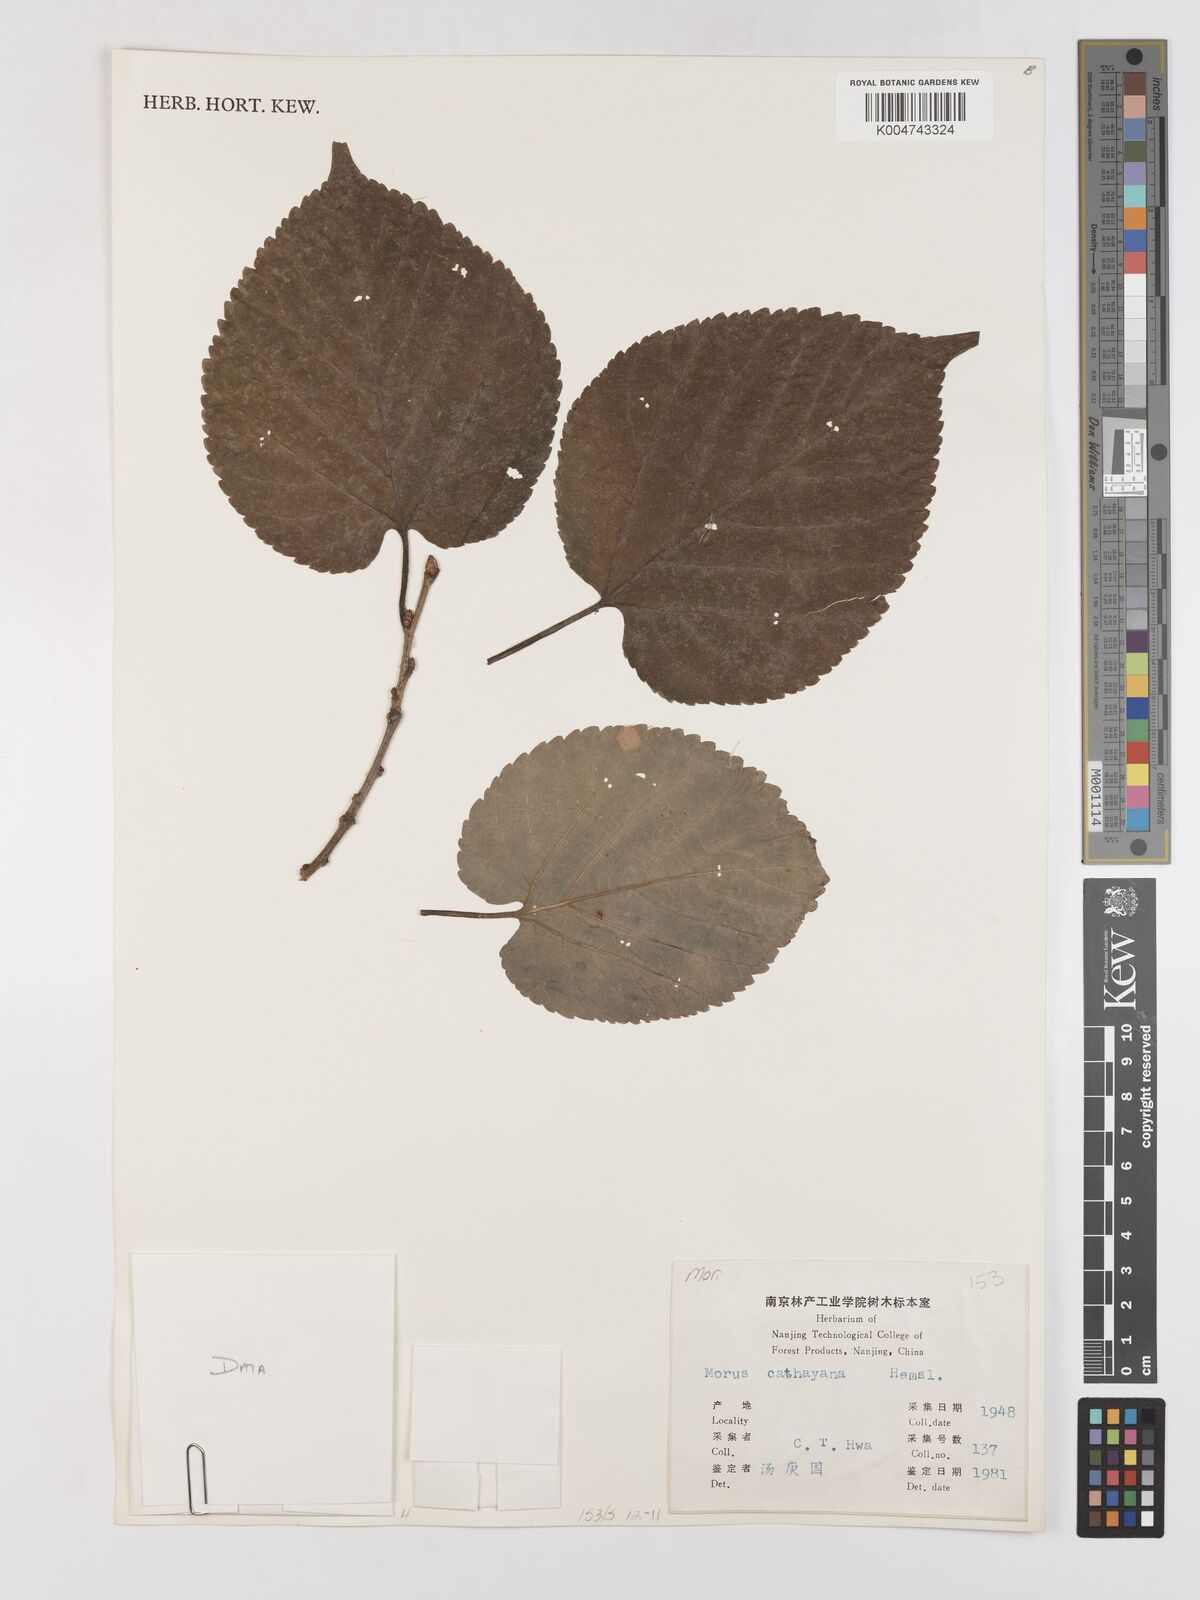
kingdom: Plantae
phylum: Tracheophyta
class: Magnoliopsida
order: Rosales
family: Moraceae
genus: Morus
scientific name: Morus cathayana
